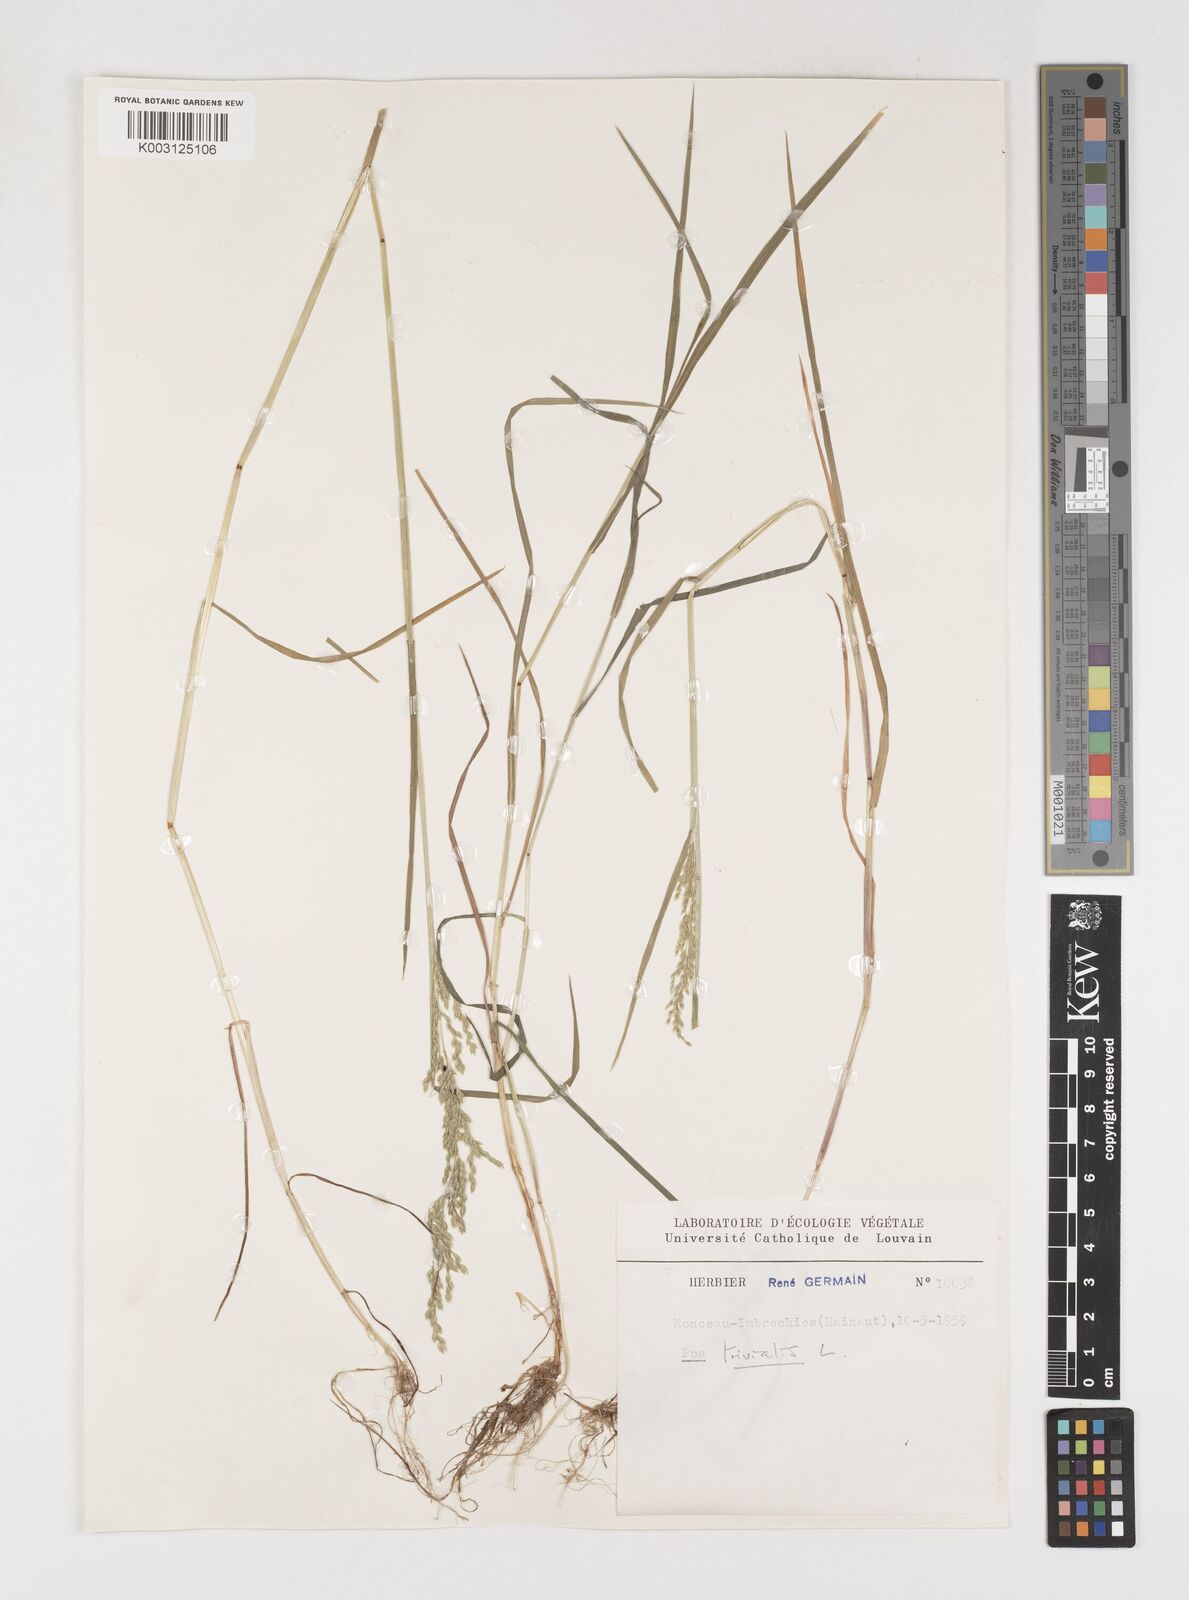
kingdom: Plantae
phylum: Tracheophyta
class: Liliopsida
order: Poales
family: Poaceae
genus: Poa
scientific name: Poa trivialis
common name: Rough bluegrass
